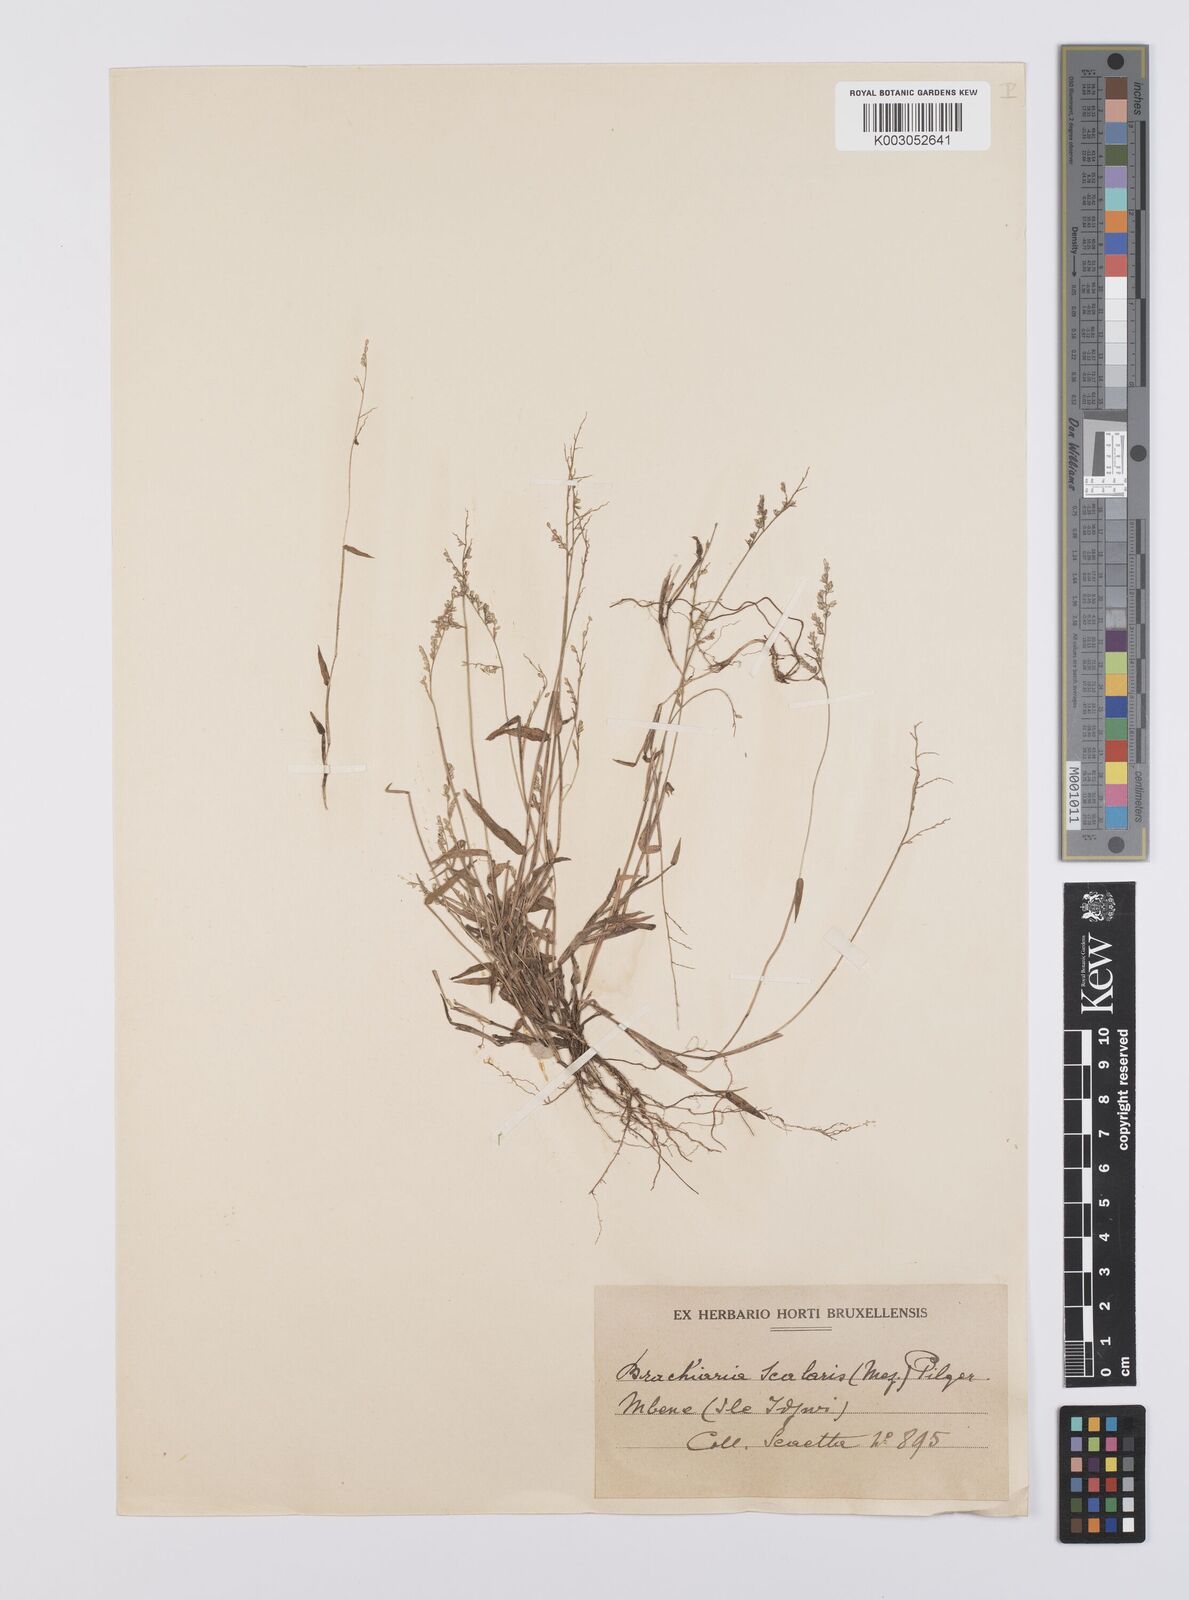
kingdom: Plantae
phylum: Tracheophyta
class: Liliopsida
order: Poales
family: Poaceae
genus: Urochloa
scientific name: Urochloa comata
